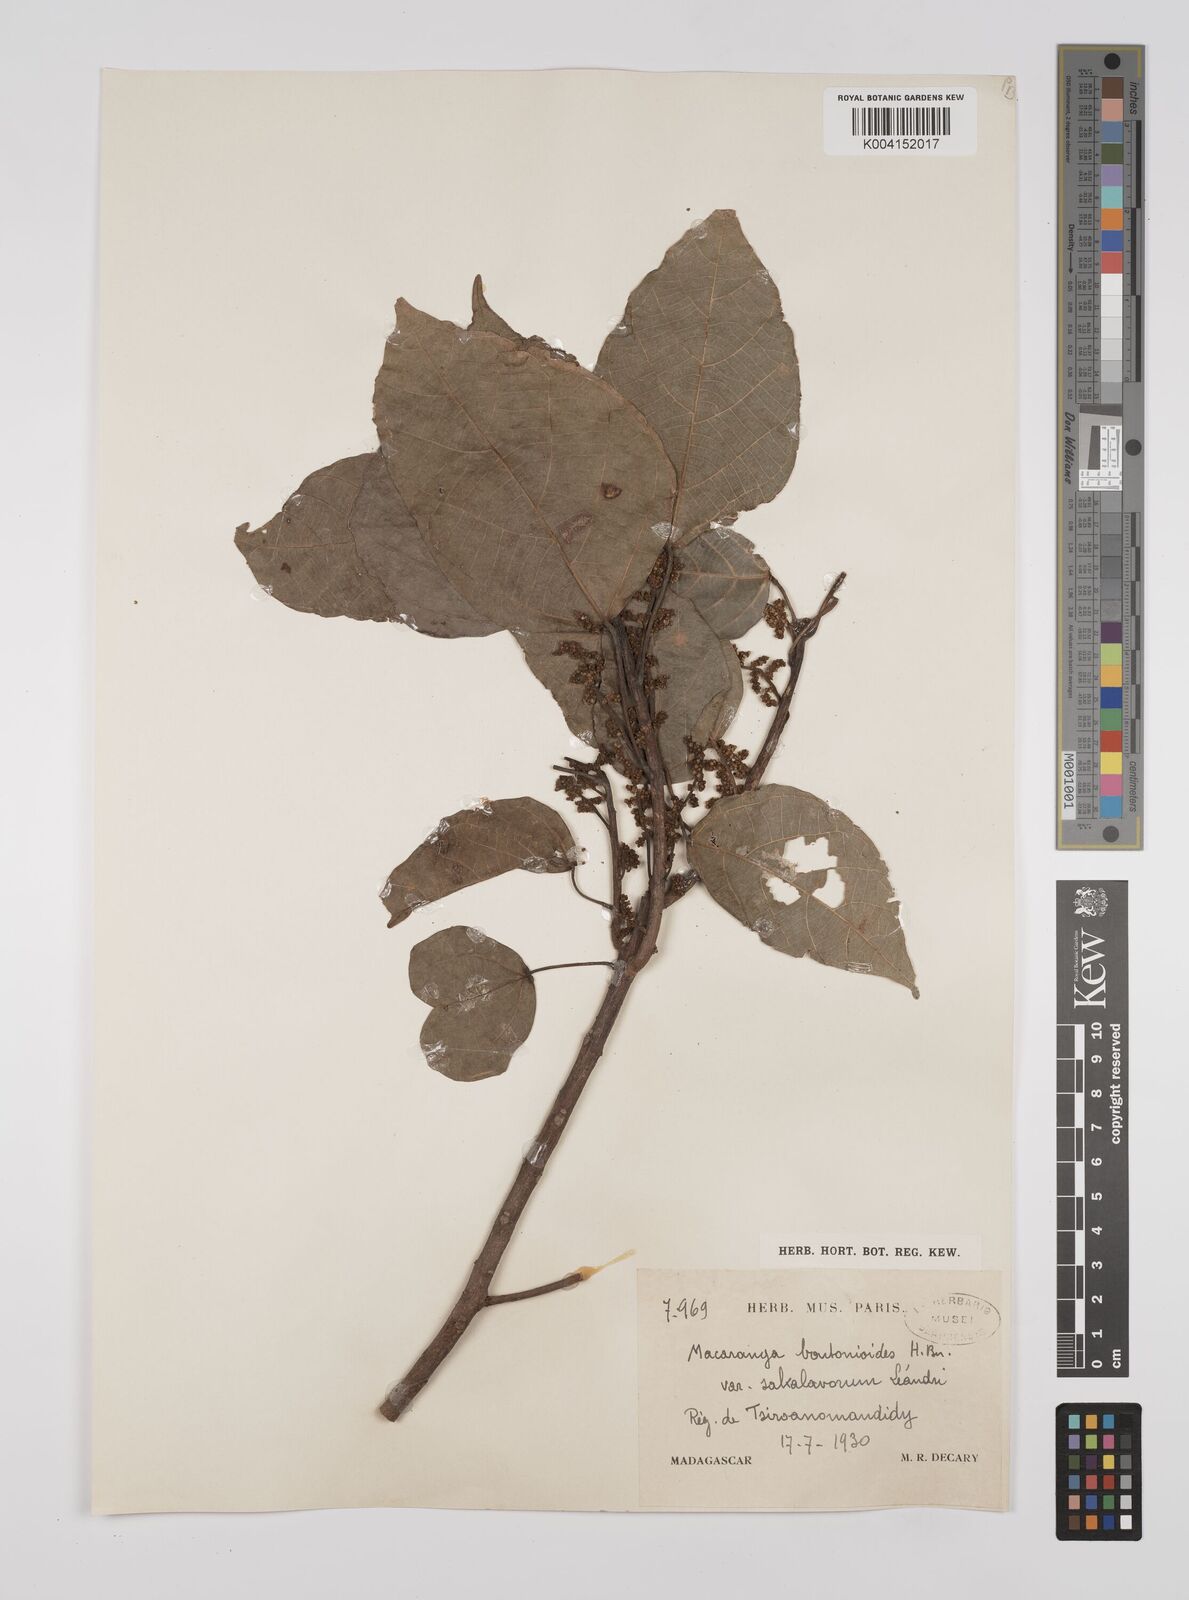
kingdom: Plantae
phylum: Tracheophyta
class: Magnoliopsida
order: Malpighiales
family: Euphorbiaceae
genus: Macaranga
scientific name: Macaranga boutonioides
